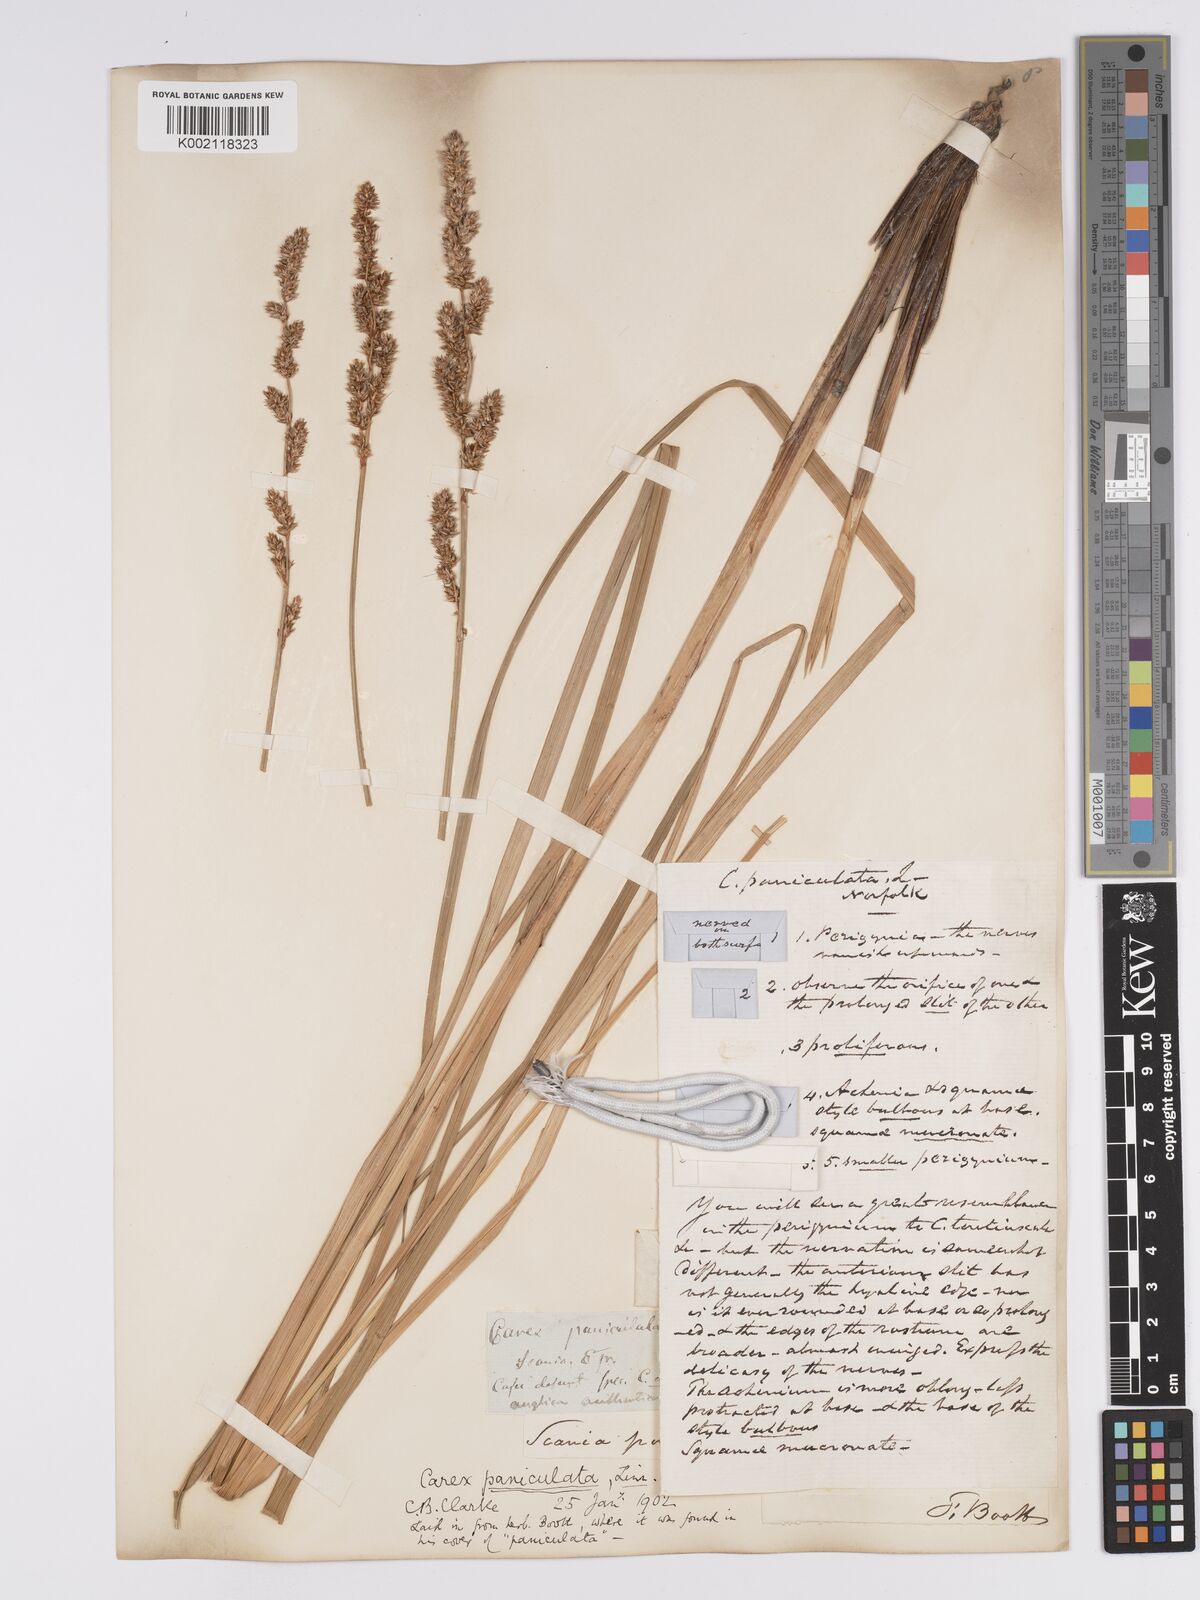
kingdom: Plantae
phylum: Tracheophyta
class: Liliopsida
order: Poales
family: Cyperaceae
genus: Carex
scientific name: Carex paniculata
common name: Greater tussock-sedge
